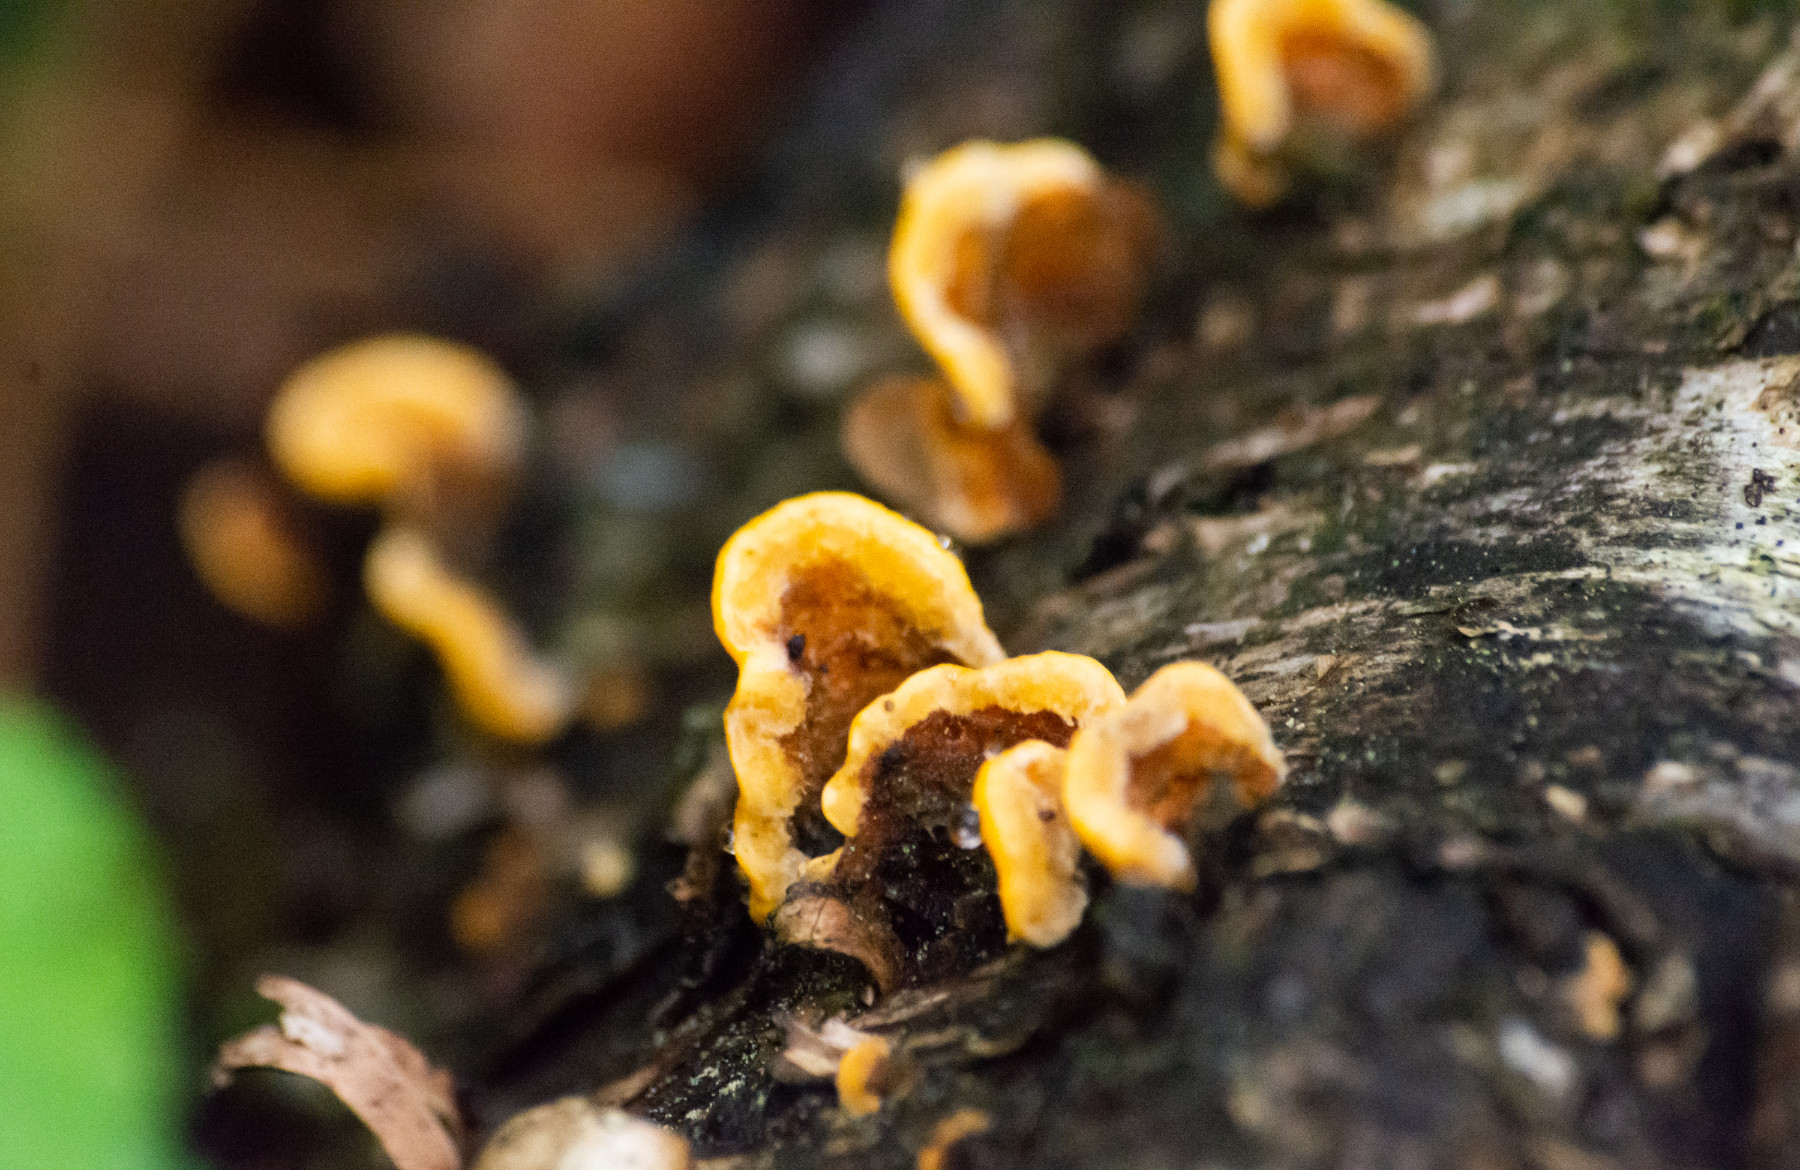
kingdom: Fungi
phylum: Basidiomycota
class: Agaricomycetes
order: Russulales
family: Stereaceae
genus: Stereum
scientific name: Stereum hirsutum
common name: håret lædersvamp
